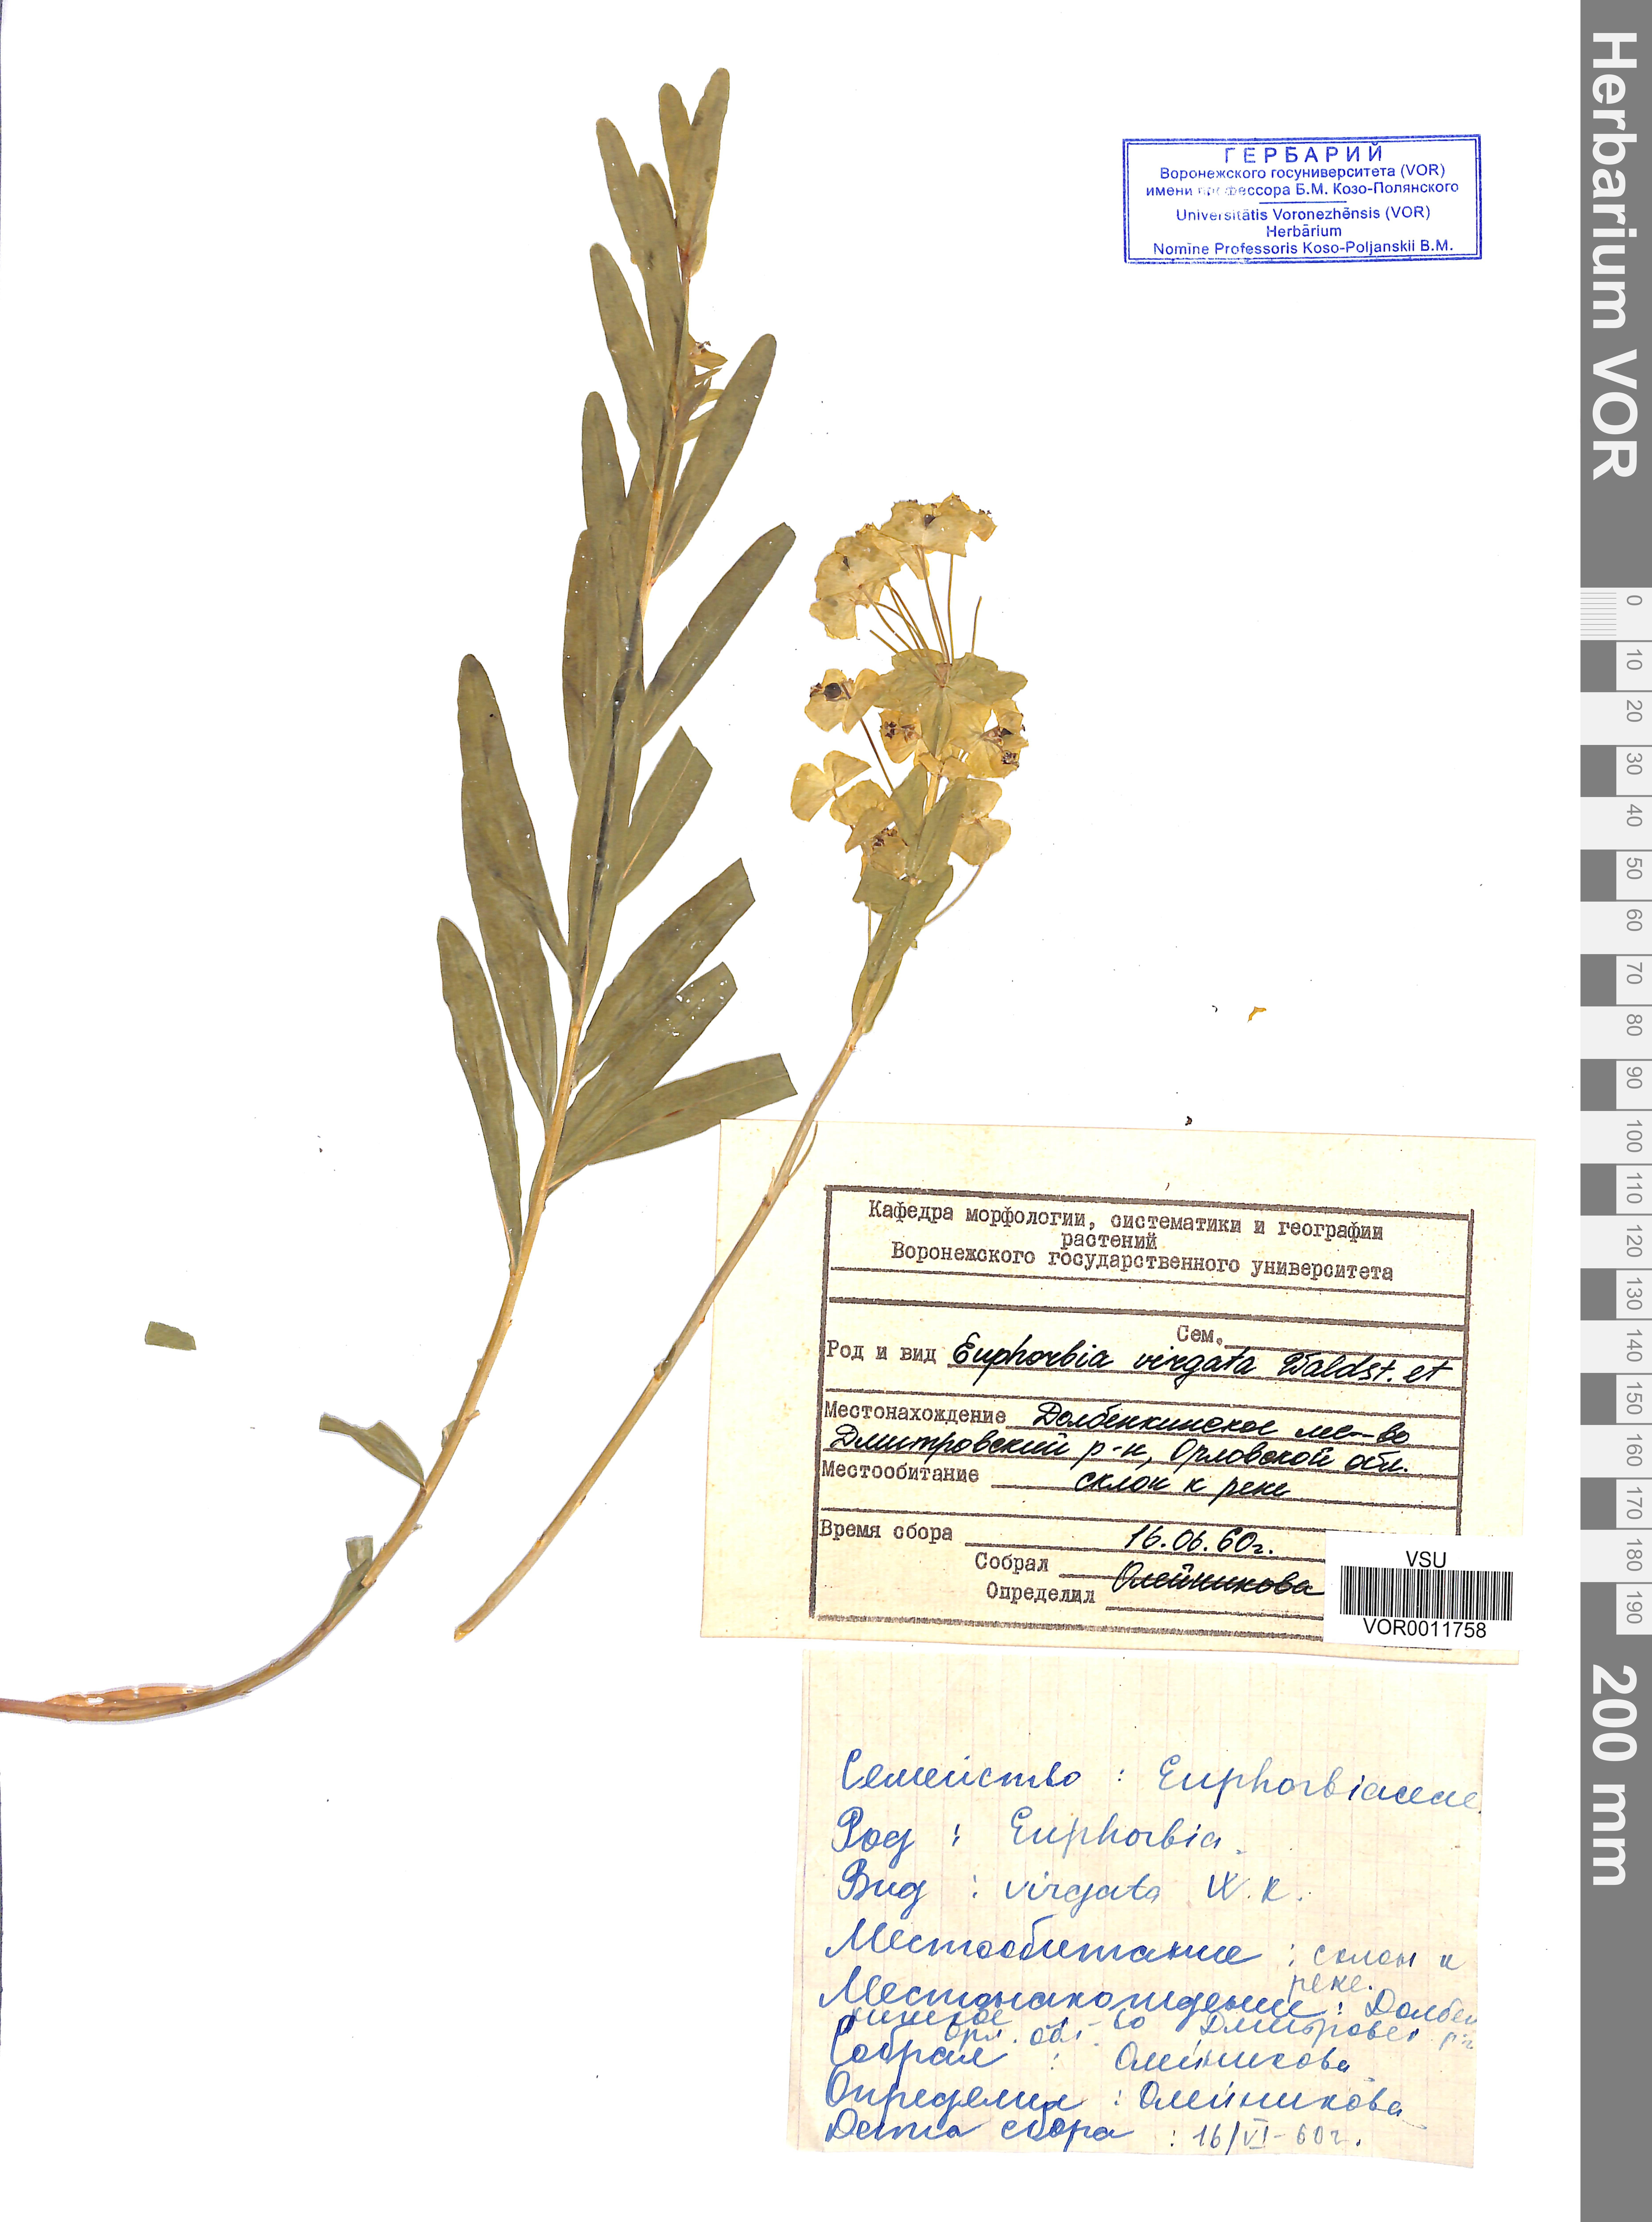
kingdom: Plantae
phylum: Tracheophyta
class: Magnoliopsida
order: Malpighiales
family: Euphorbiaceae
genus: Euphorbia
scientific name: Euphorbia virgata
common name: Leafy spurge
